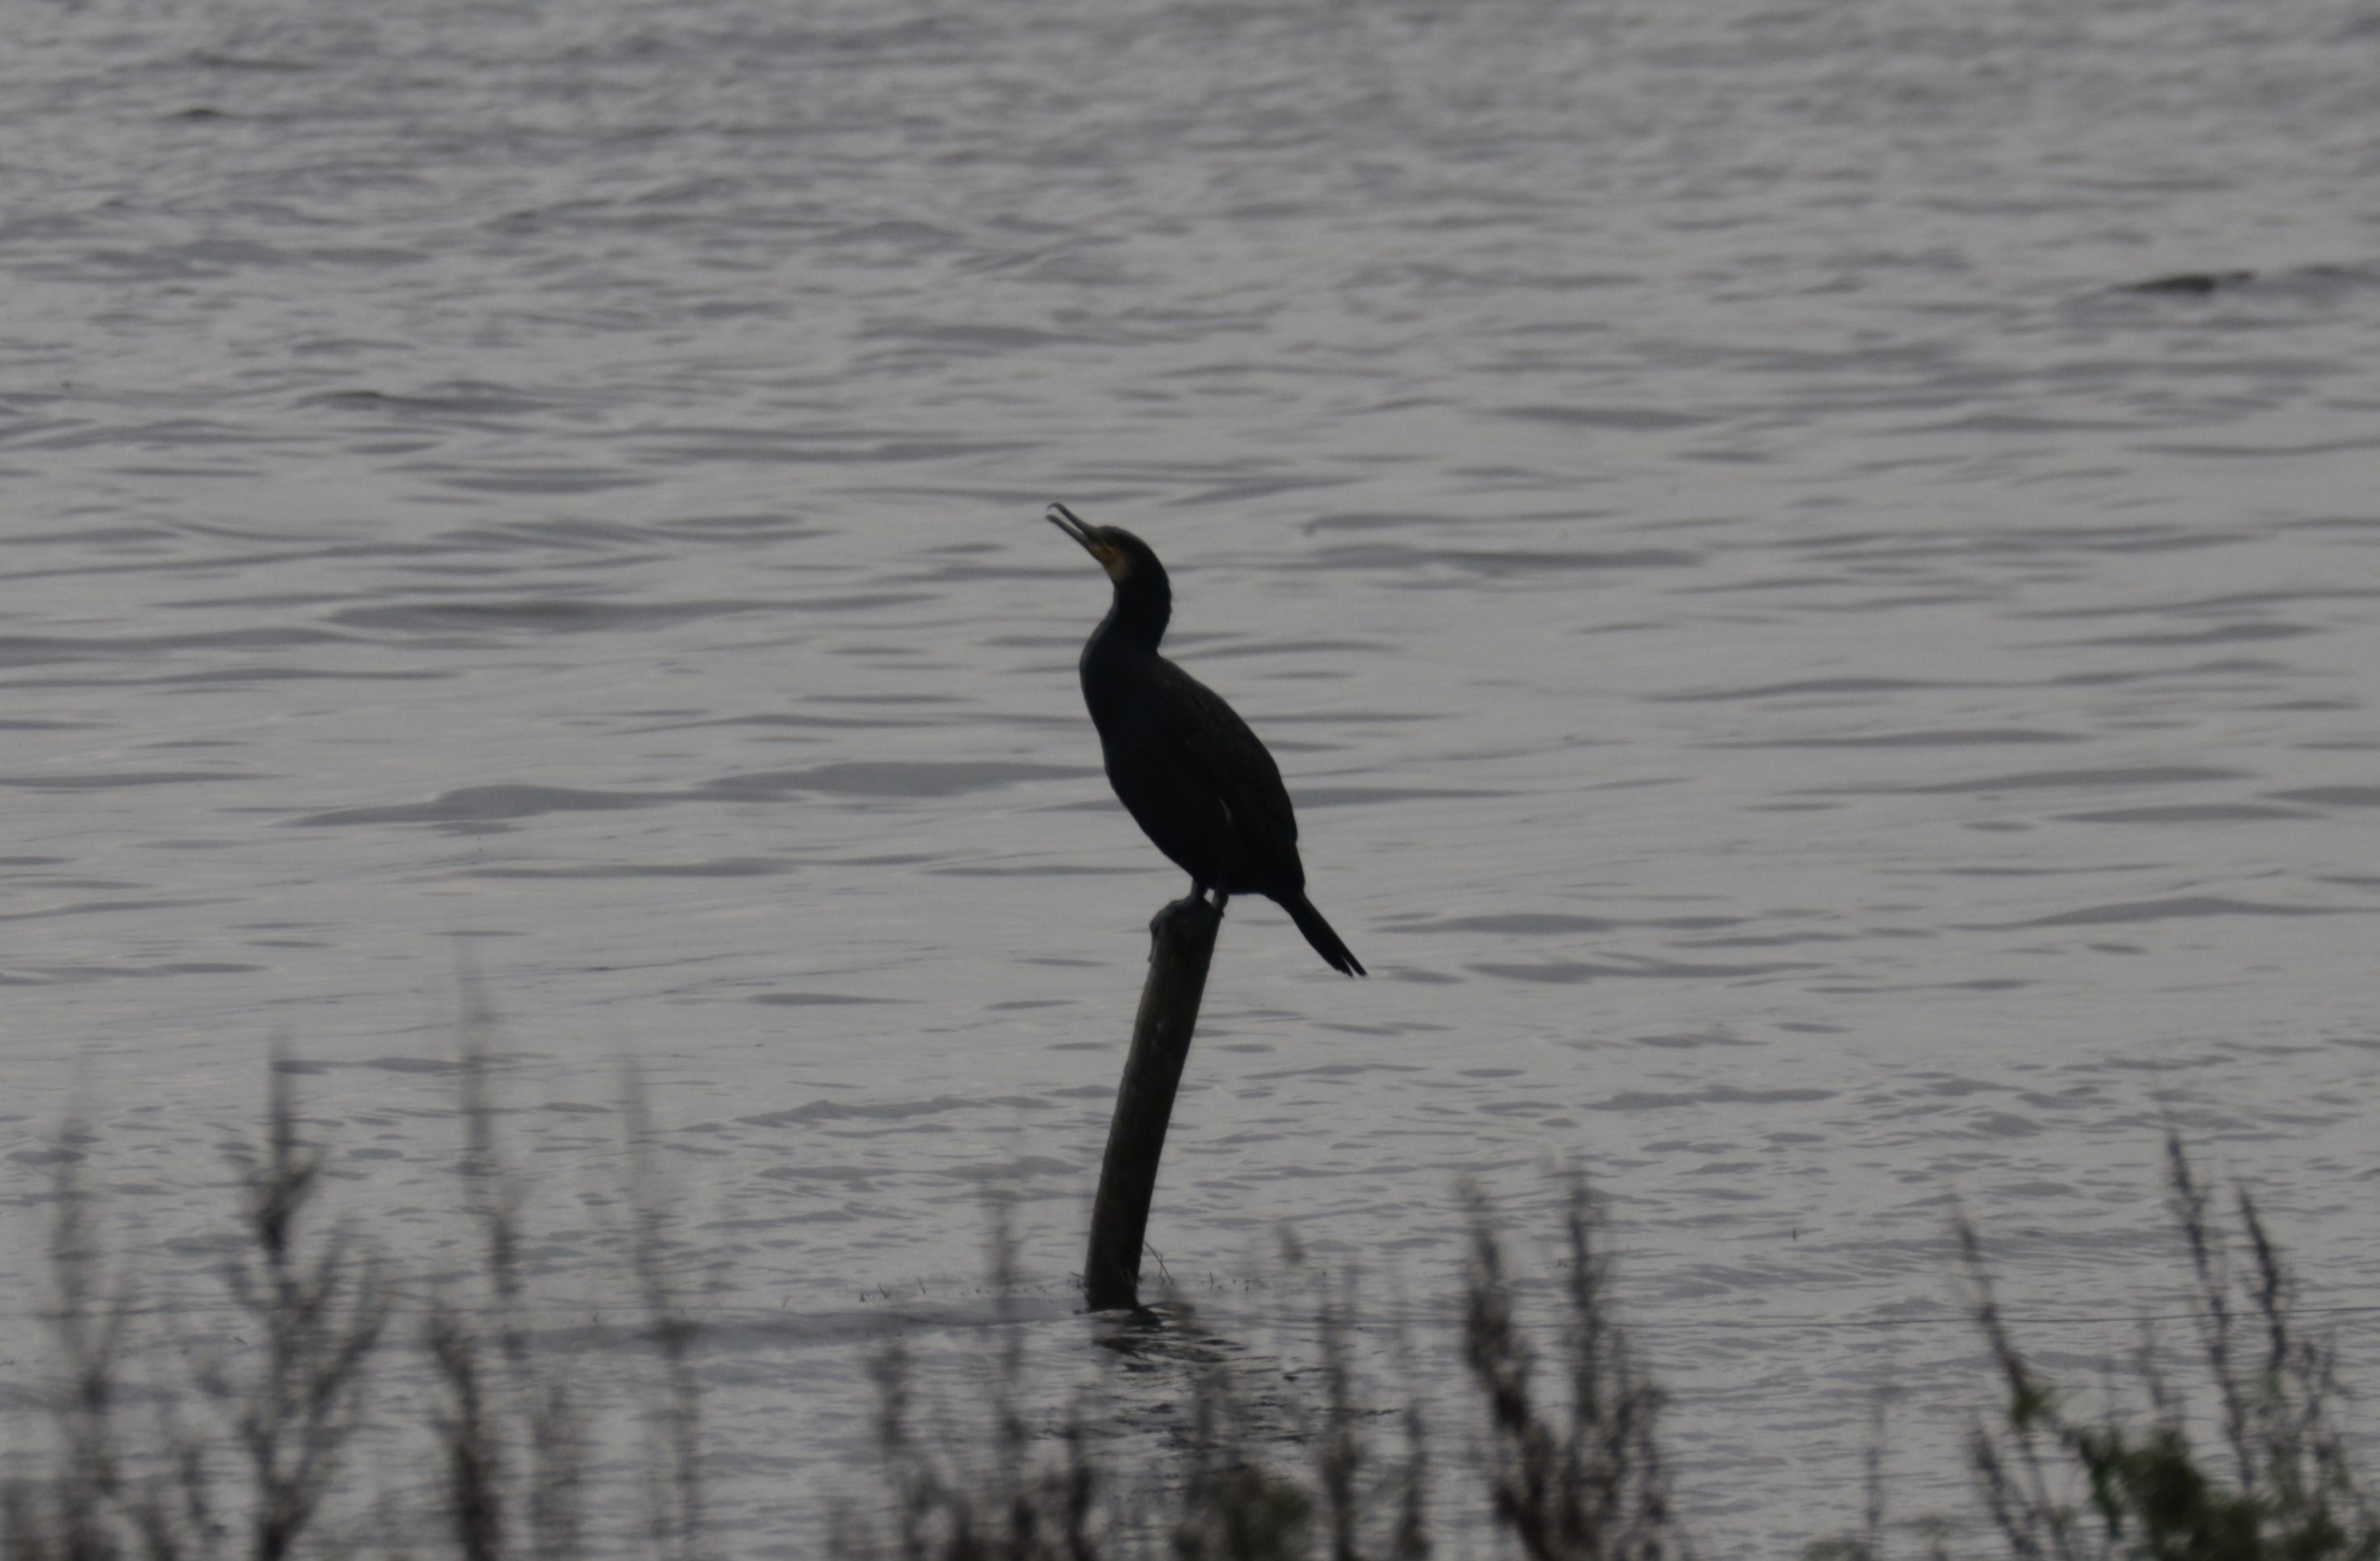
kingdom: Animalia
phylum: Chordata
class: Aves
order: Suliformes
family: Phalacrocoracidae
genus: Phalacrocorax
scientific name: Phalacrocorax carbo
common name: Skarv
